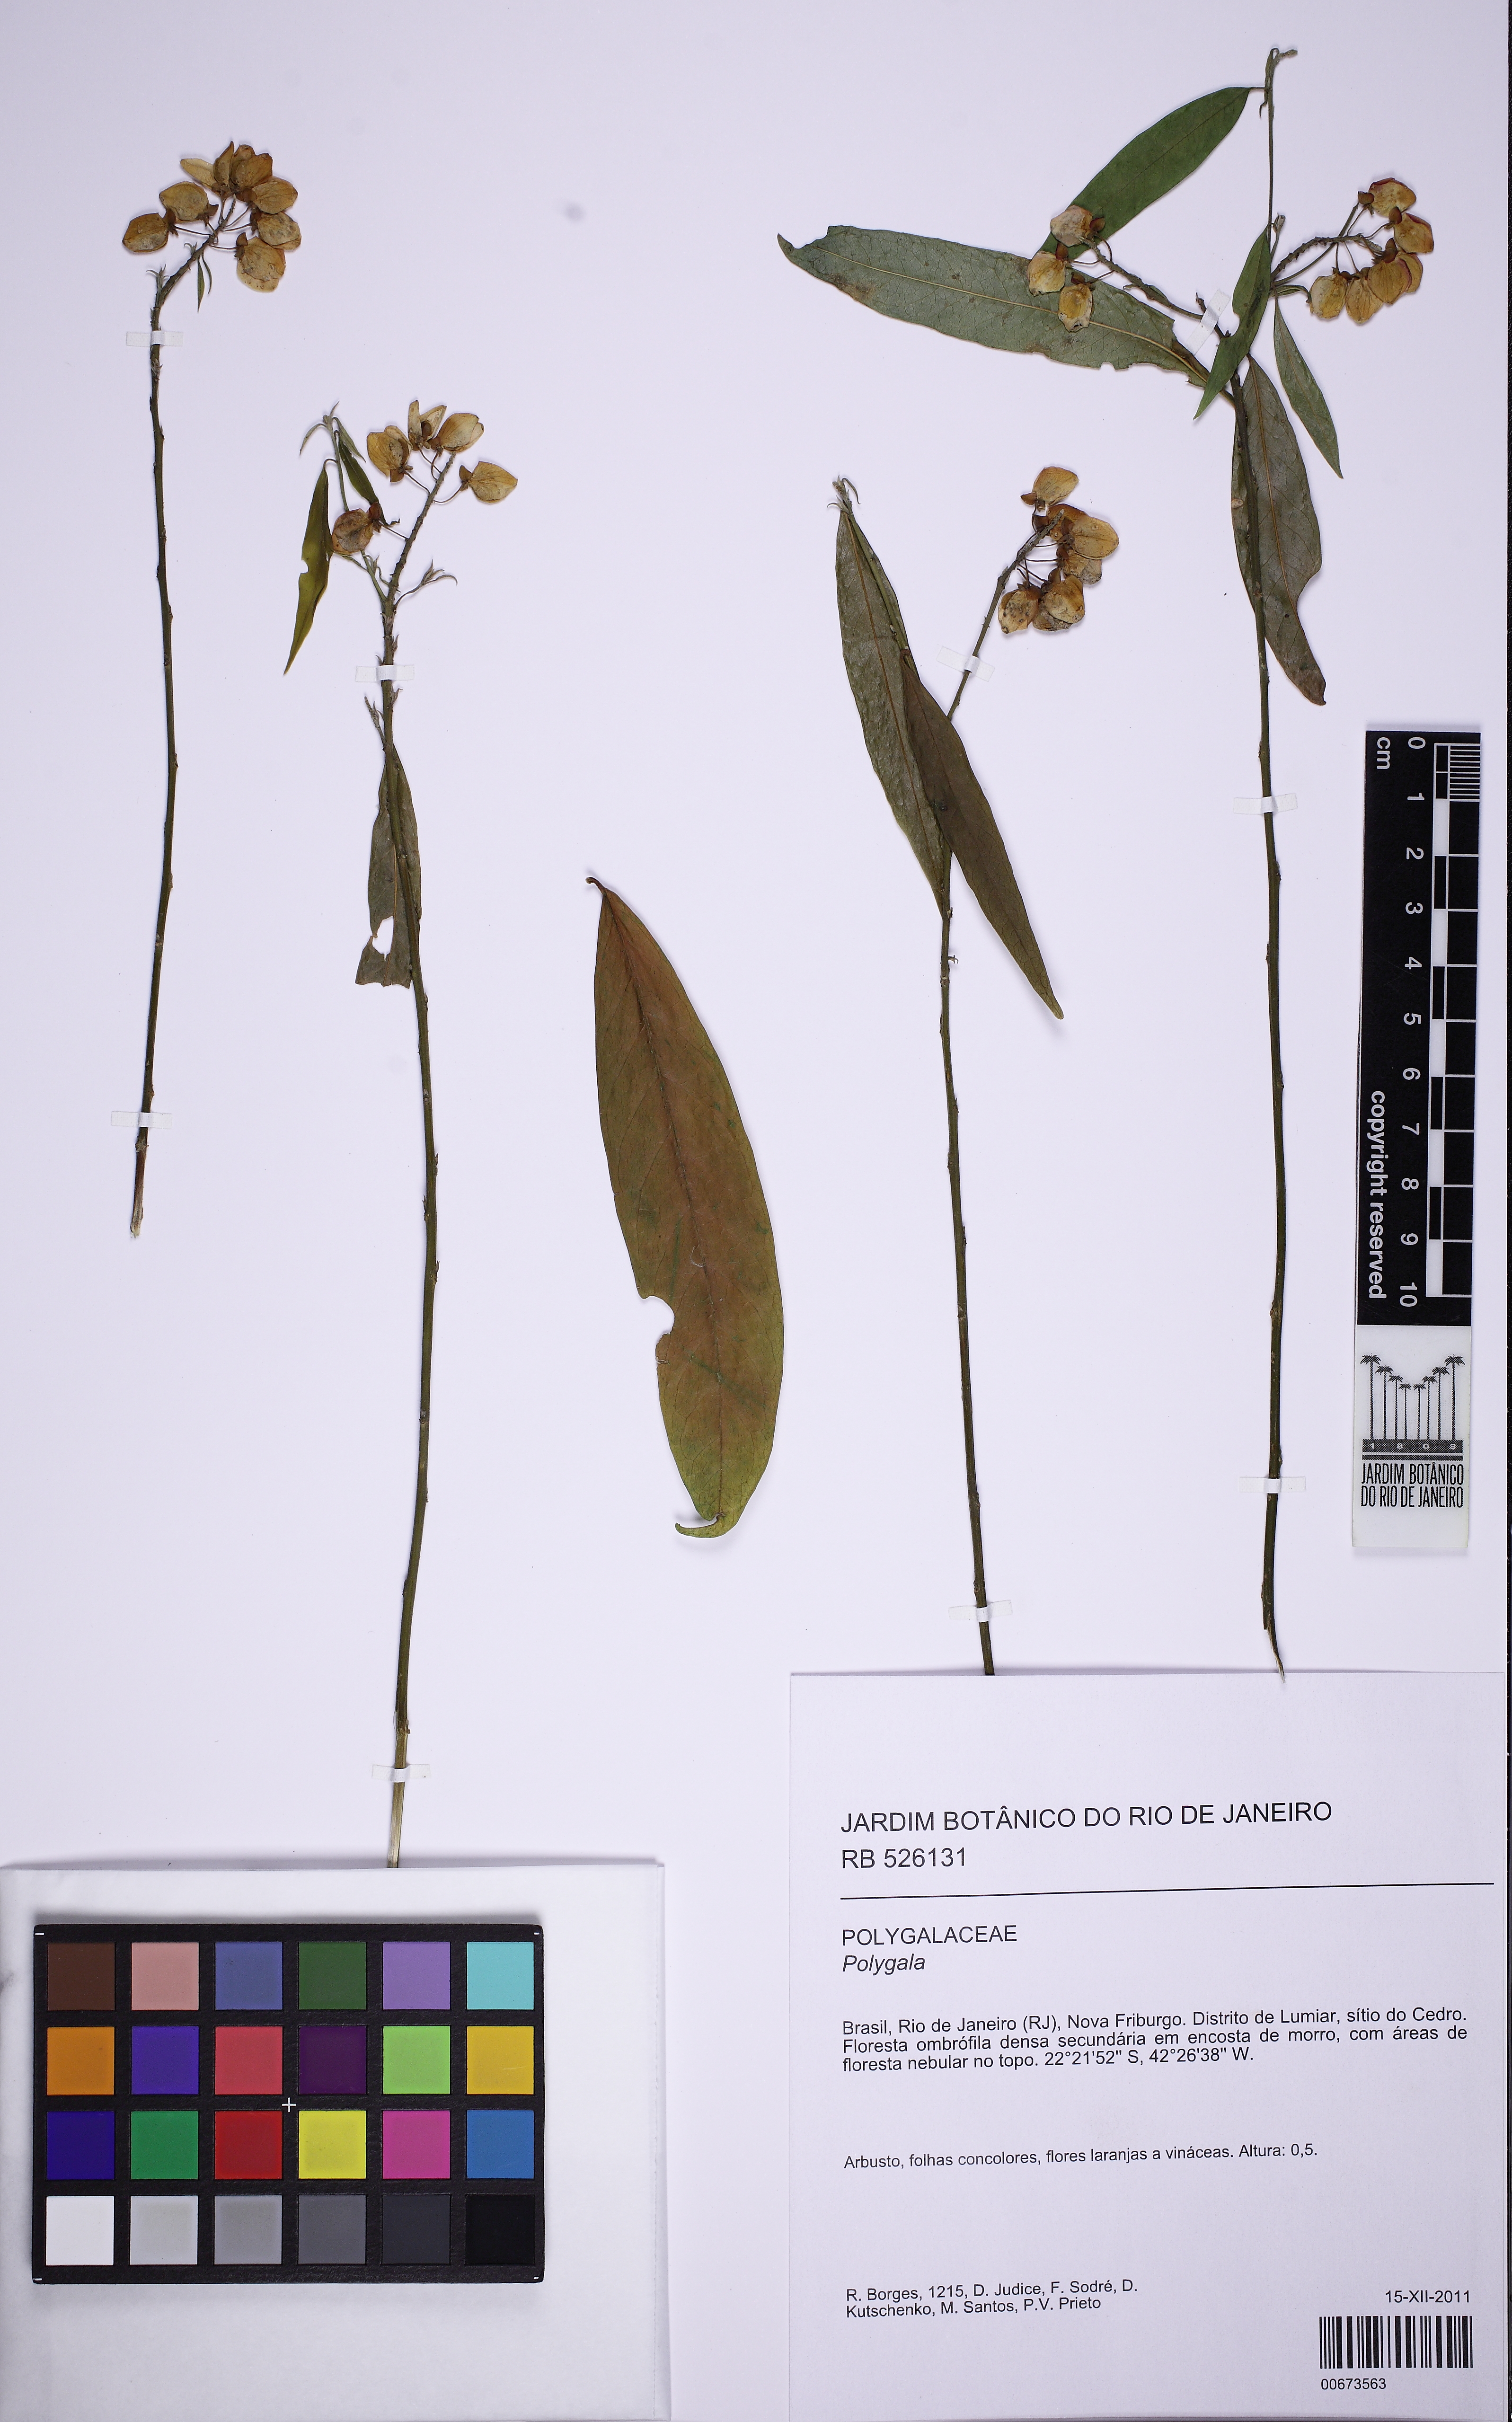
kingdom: Plantae
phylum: Tracheophyta
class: Magnoliopsida
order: Fabales
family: Polygalaceae
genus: Caamembeca
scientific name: Caamembeca
